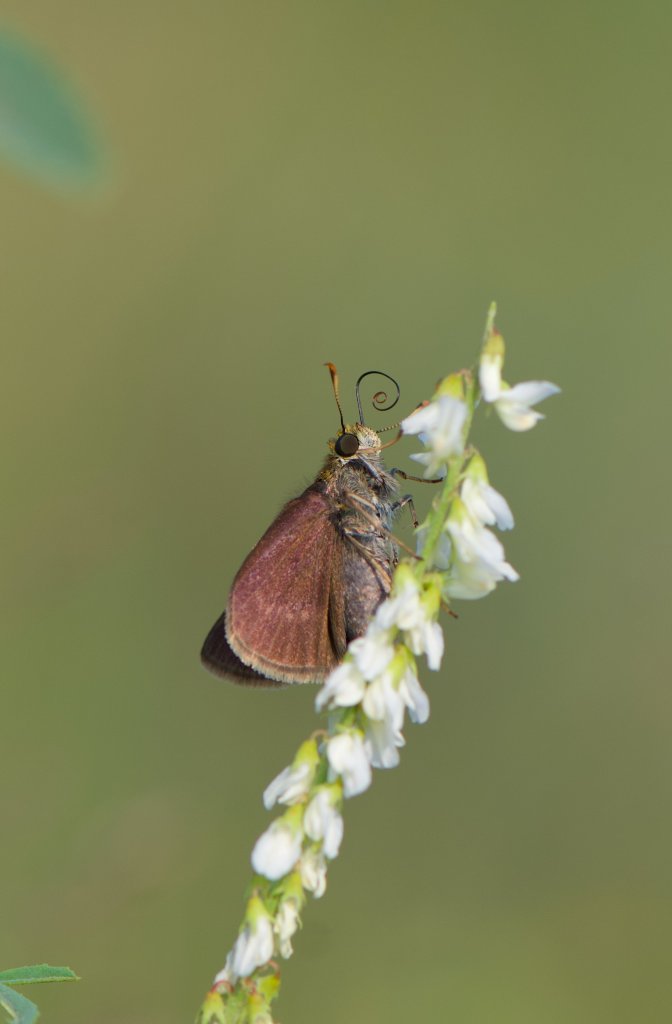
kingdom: Animalia
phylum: Arthropoda
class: Insecta
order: Lepidoptera
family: Hesperiidae
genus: Euphyes
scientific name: Euphyes vestris
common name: Dun Skipper
